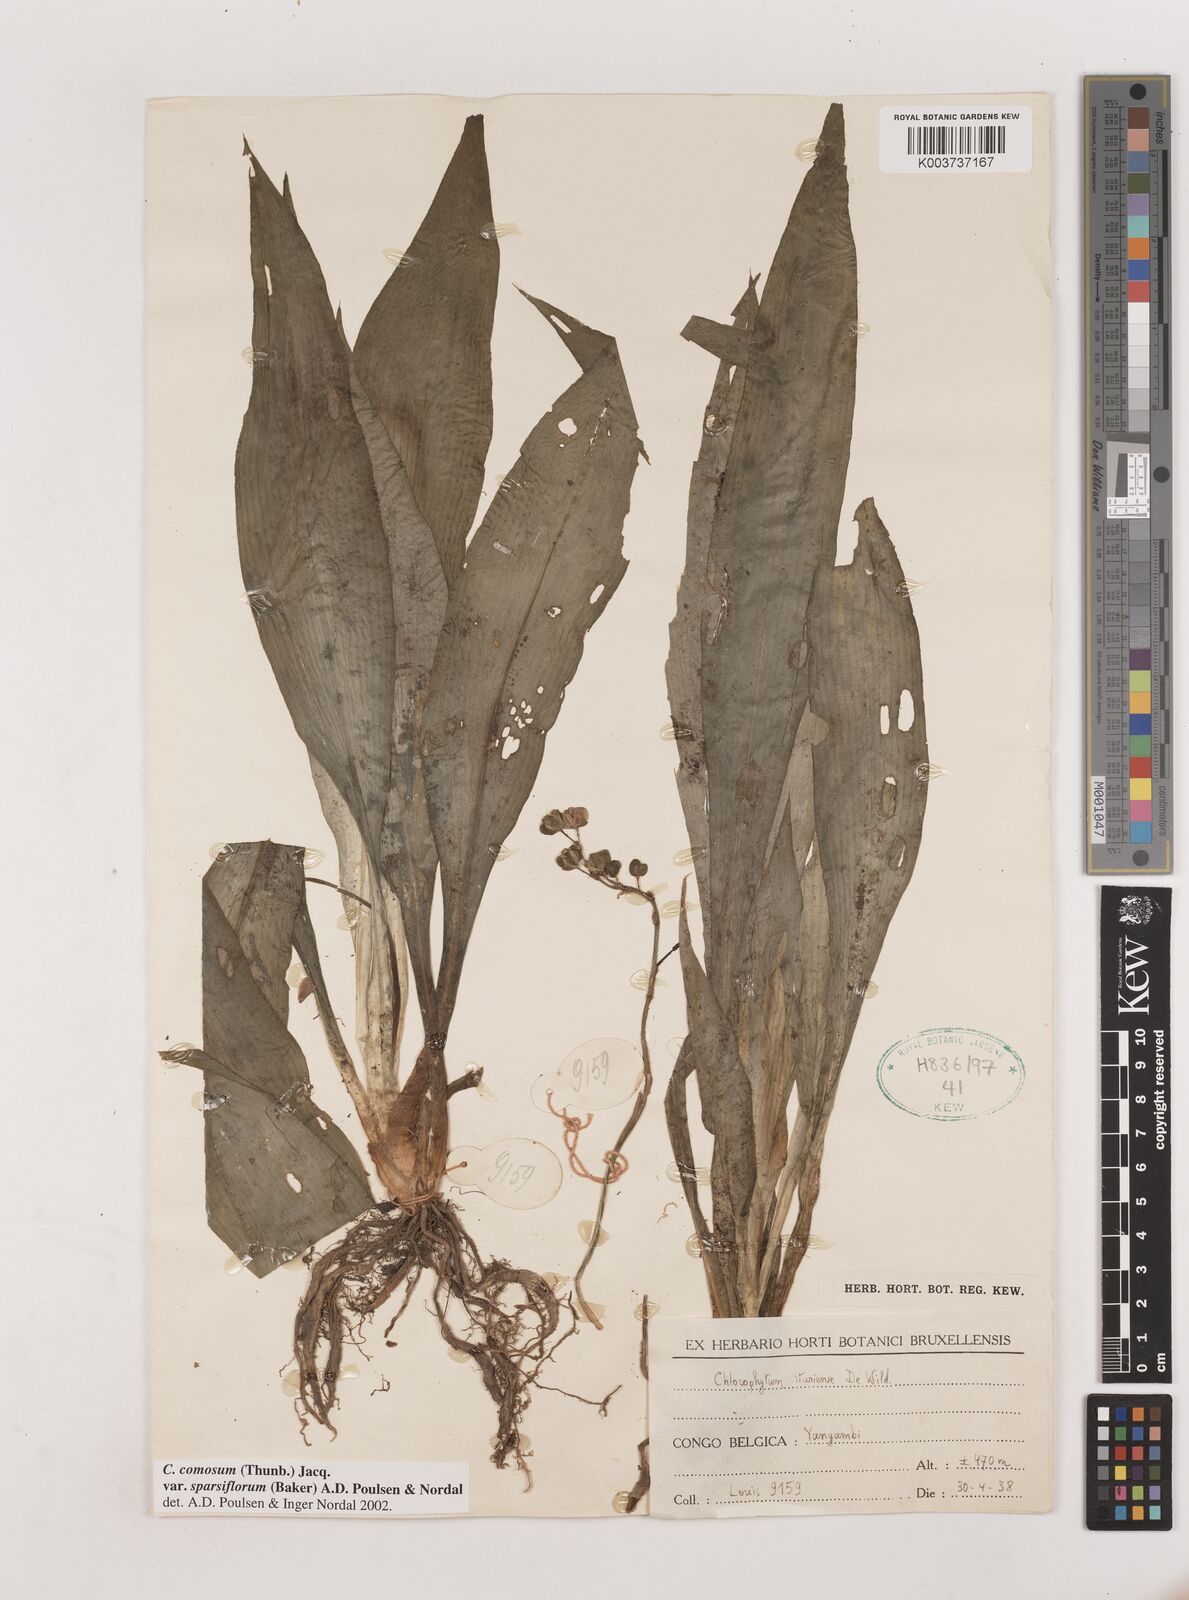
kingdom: Plantae
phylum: Tracheophyta
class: Liliopsida
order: Asparagales
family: Asparagaceae
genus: Chlorophytum
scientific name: Chlorophytum sparsiflorum
